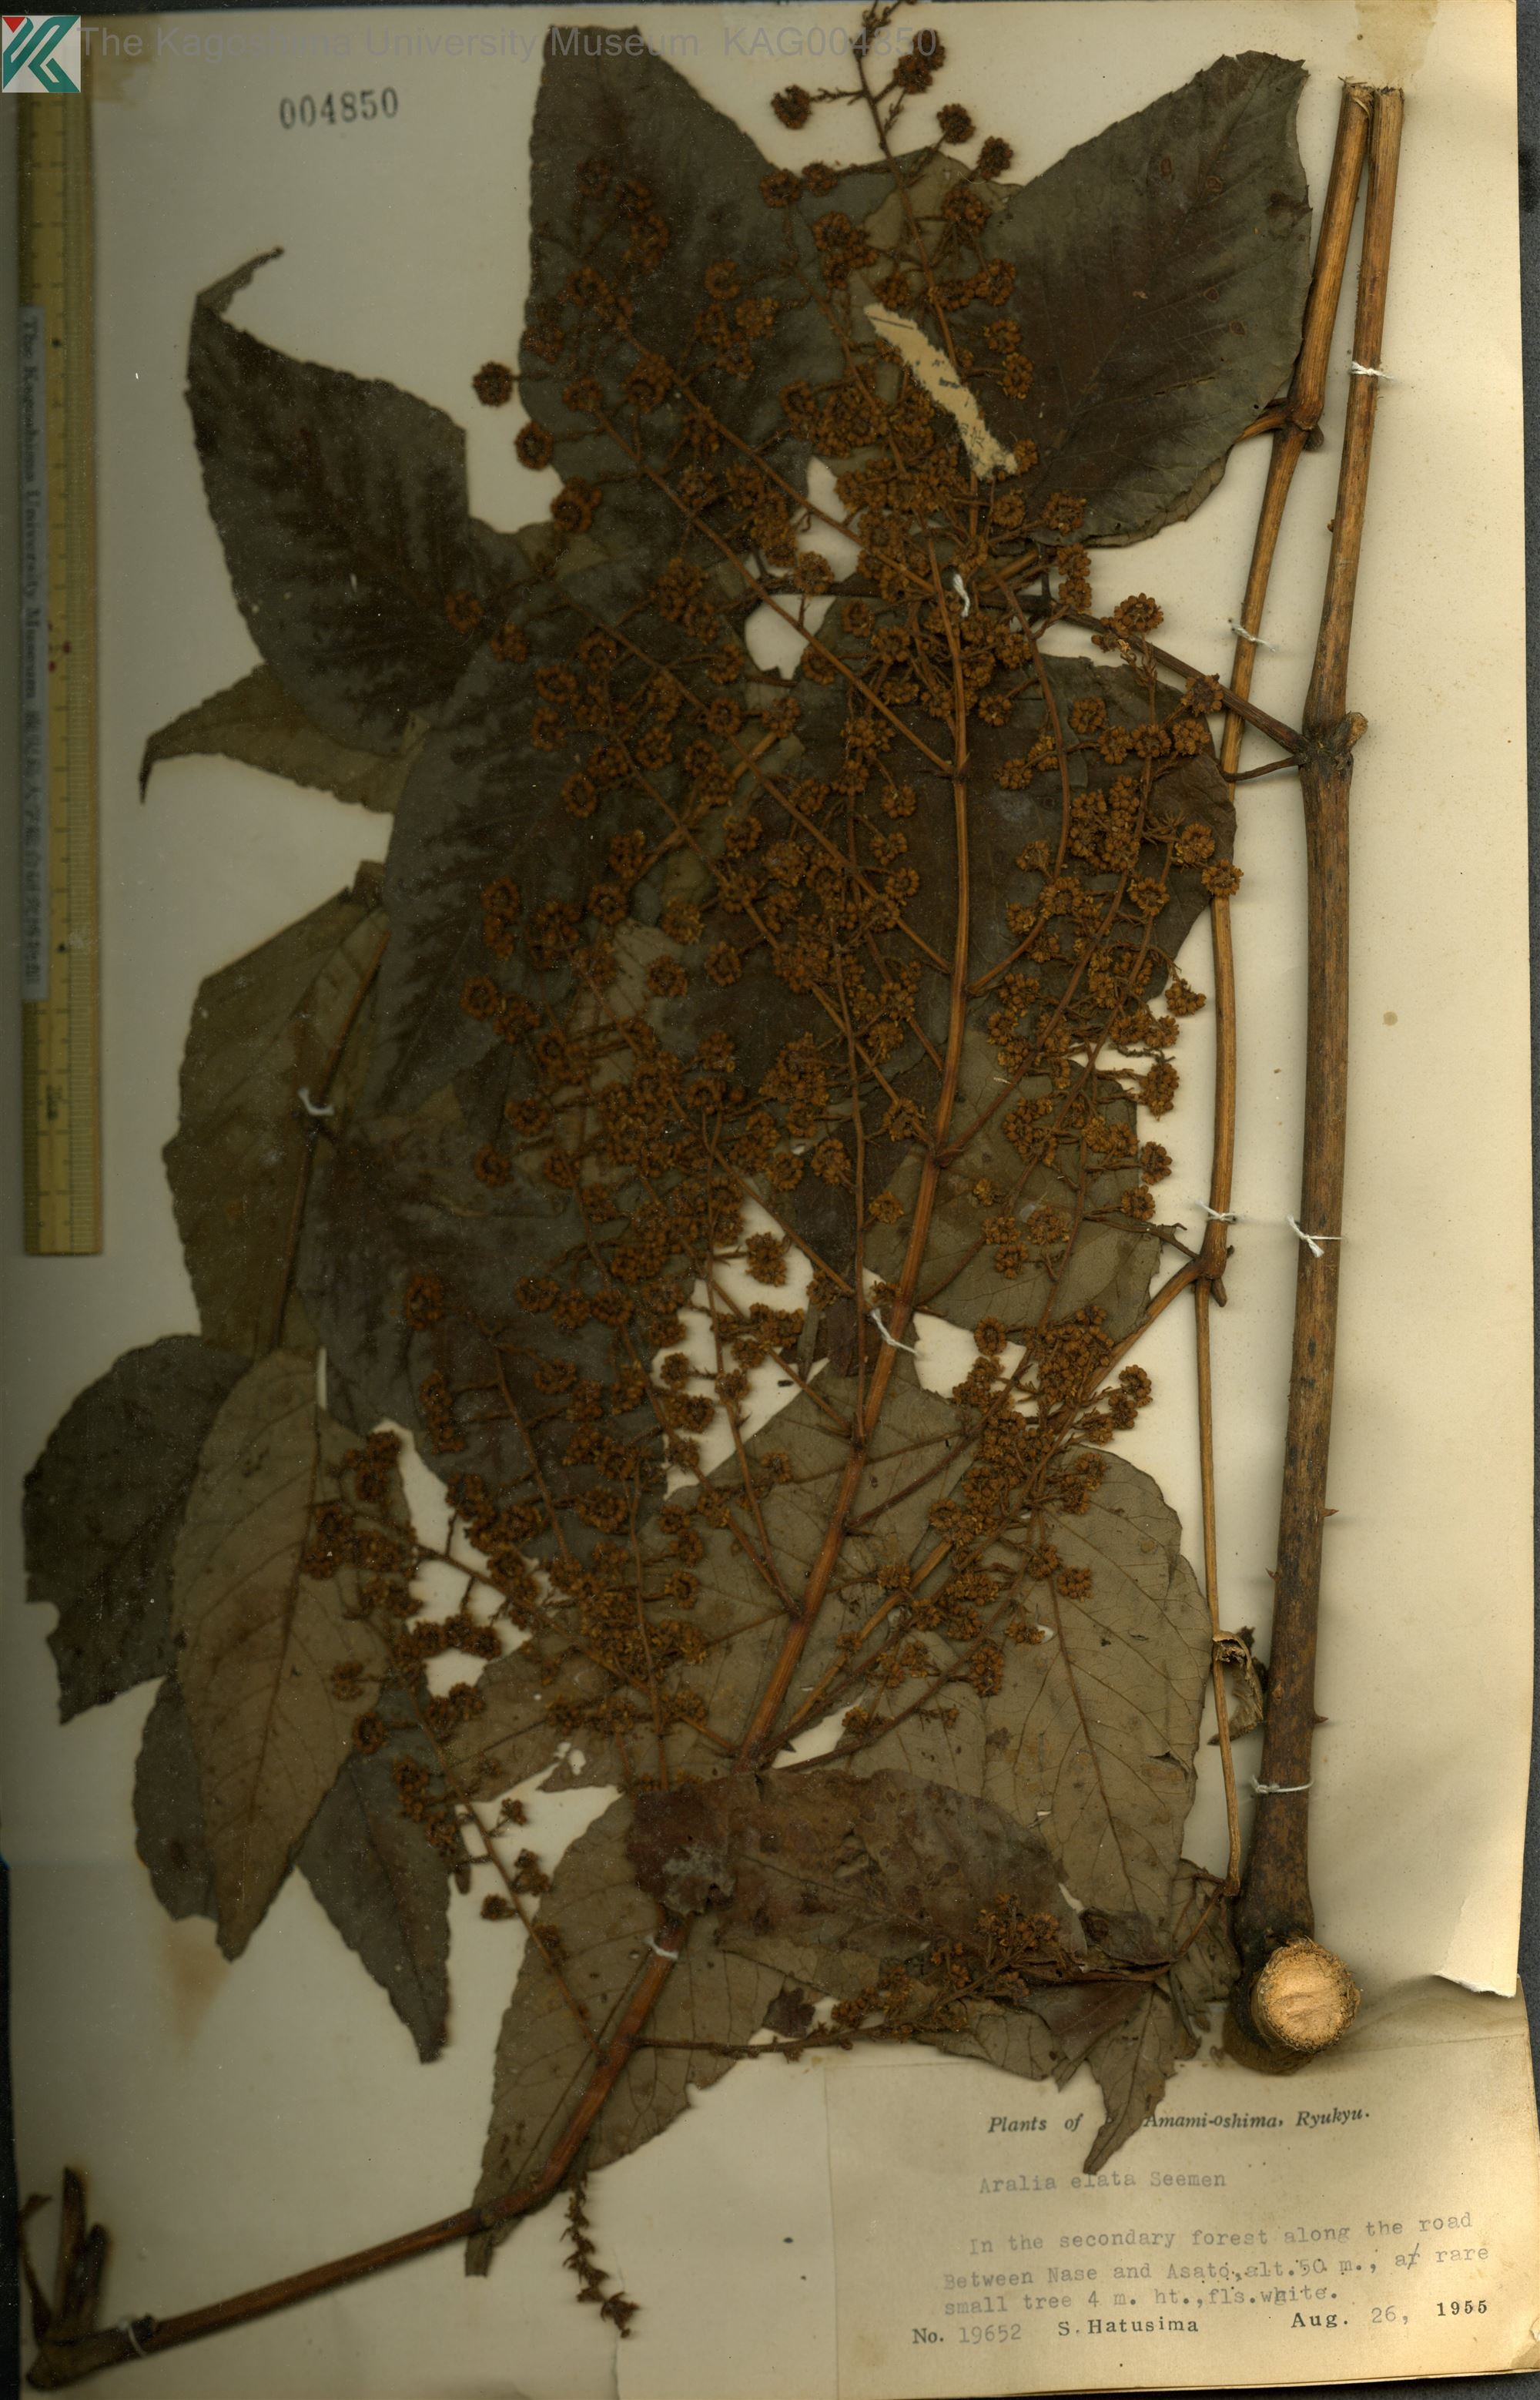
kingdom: Plantae
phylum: Tracheophyta
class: Magnoliopsida
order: Apiales
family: Araliaceae
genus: Aralia
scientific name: Aralia elata
